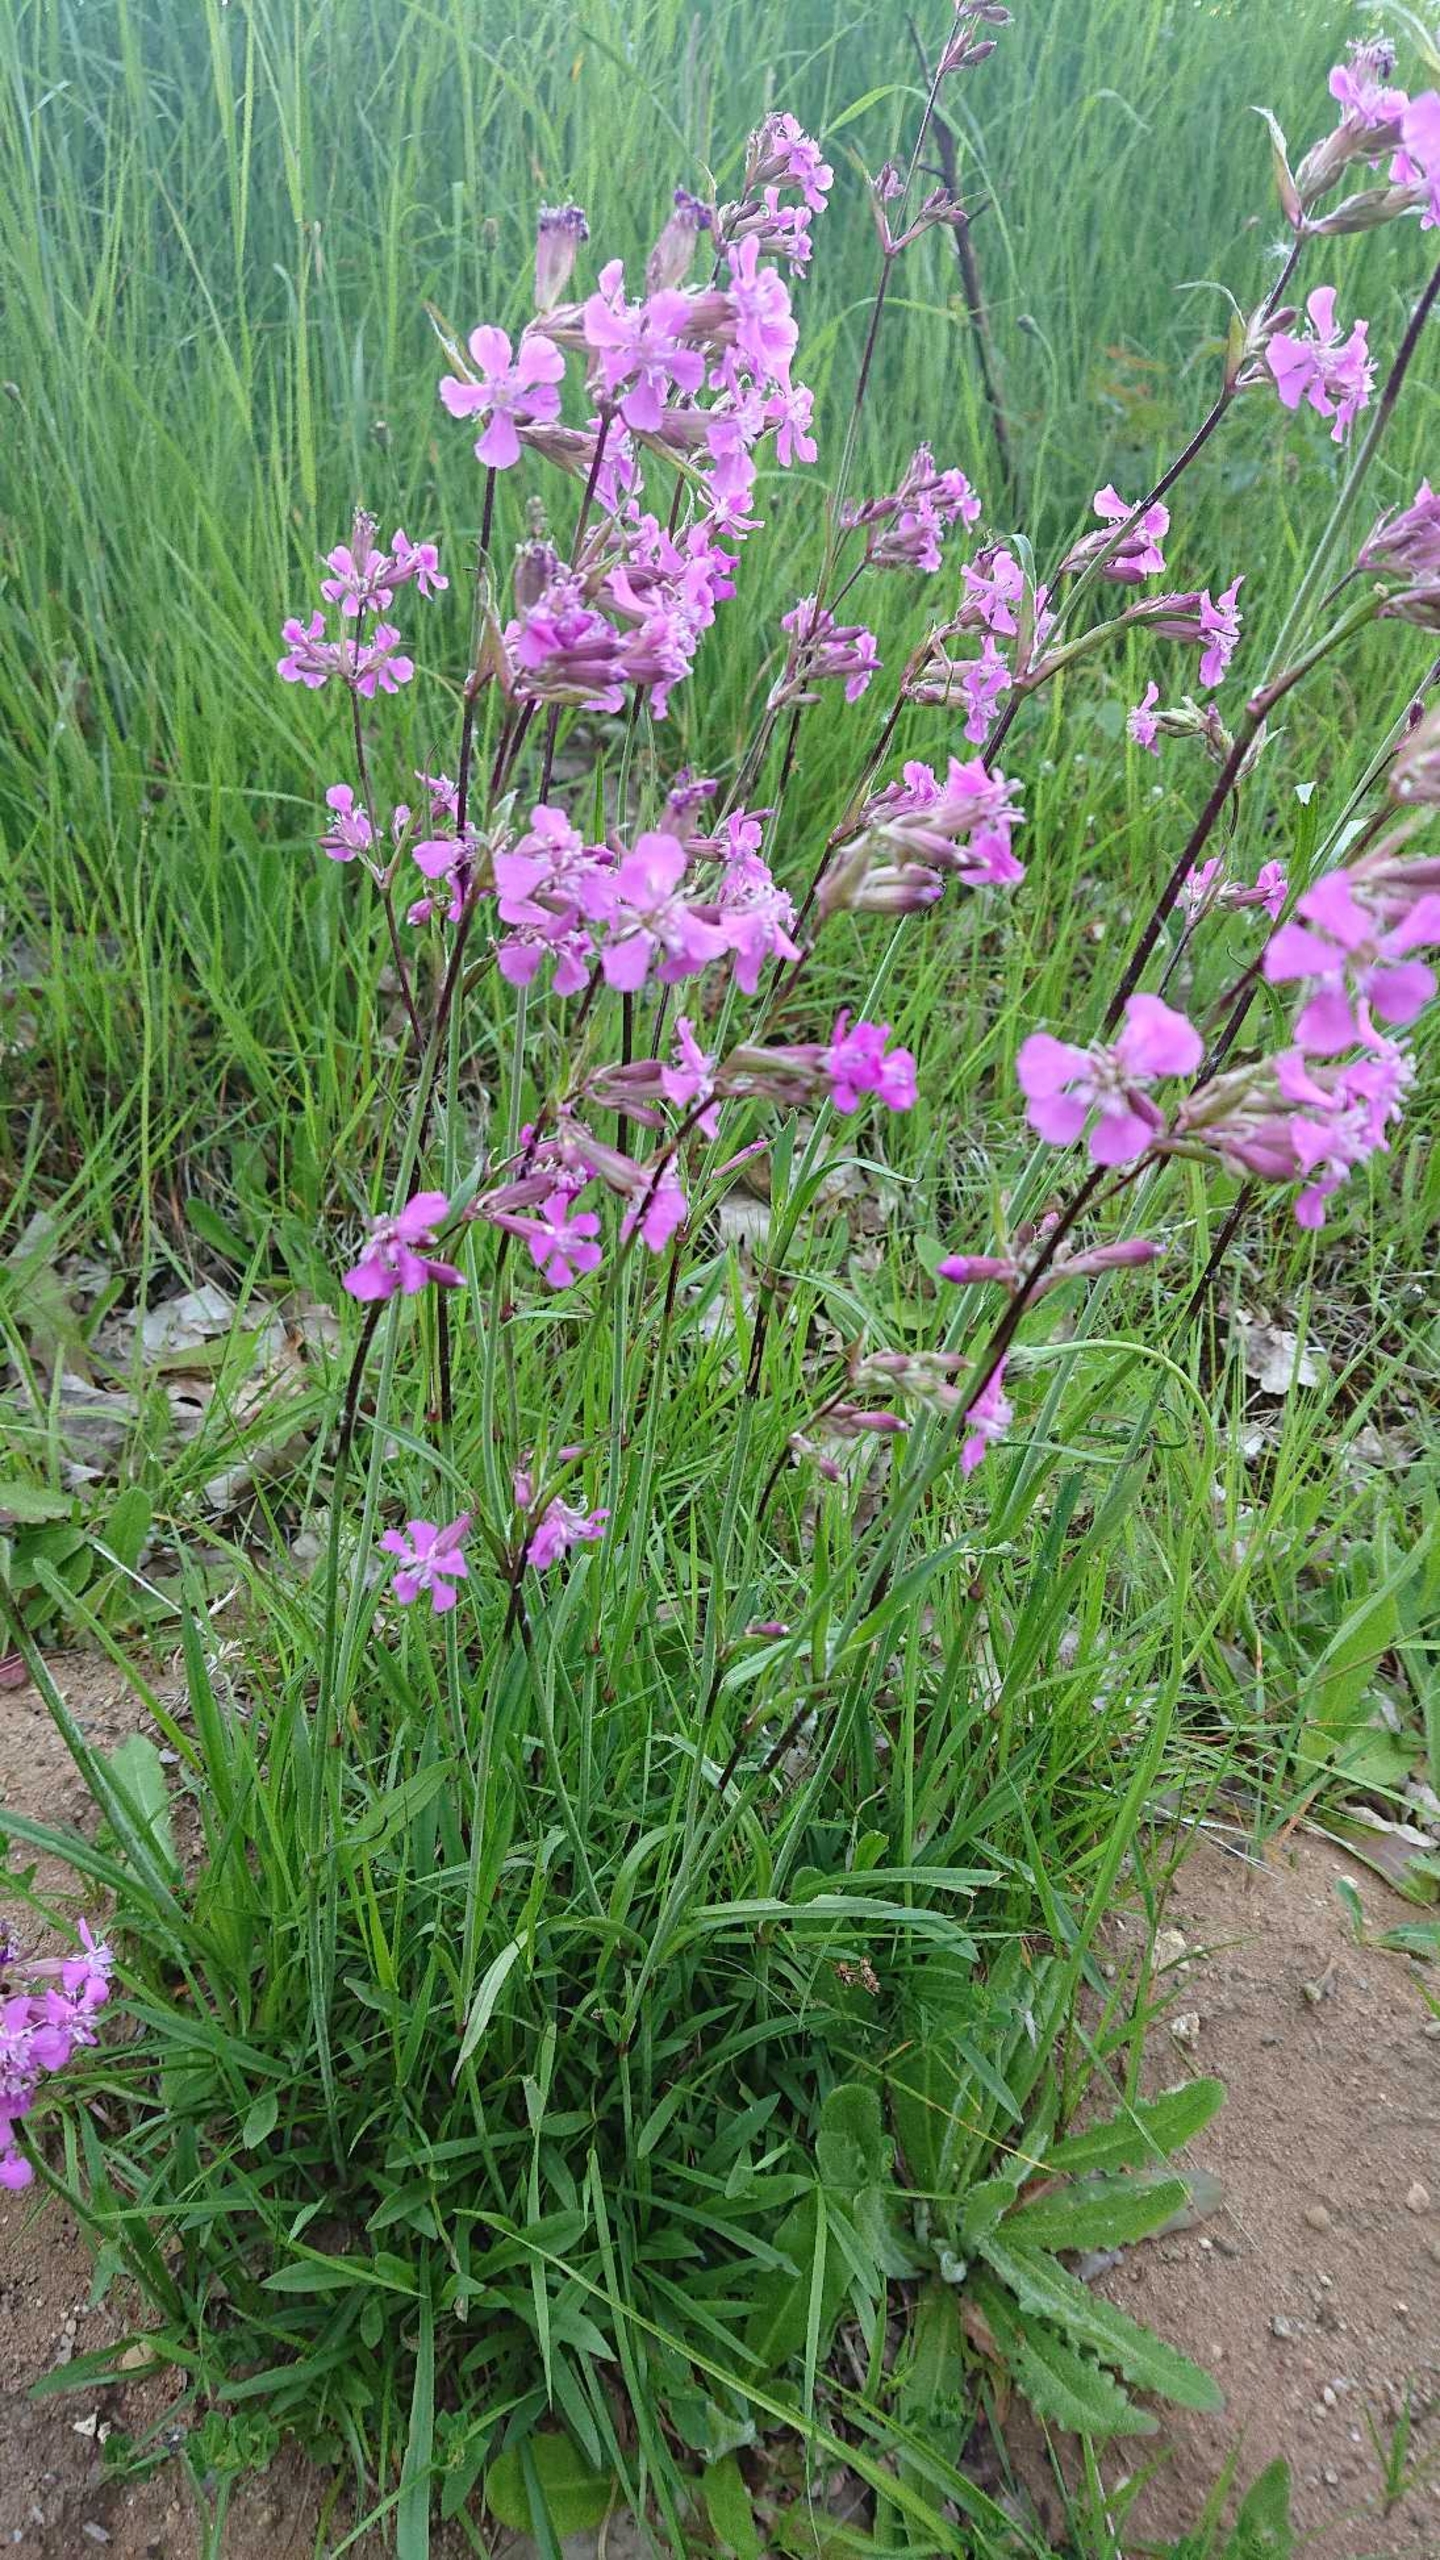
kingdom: Plantae
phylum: Tracheophyta
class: Magnoliopsida
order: Caryophyllales
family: Caryophyllaceae
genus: Viscaria
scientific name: Viscaria vulgaris
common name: Tjærenellike
